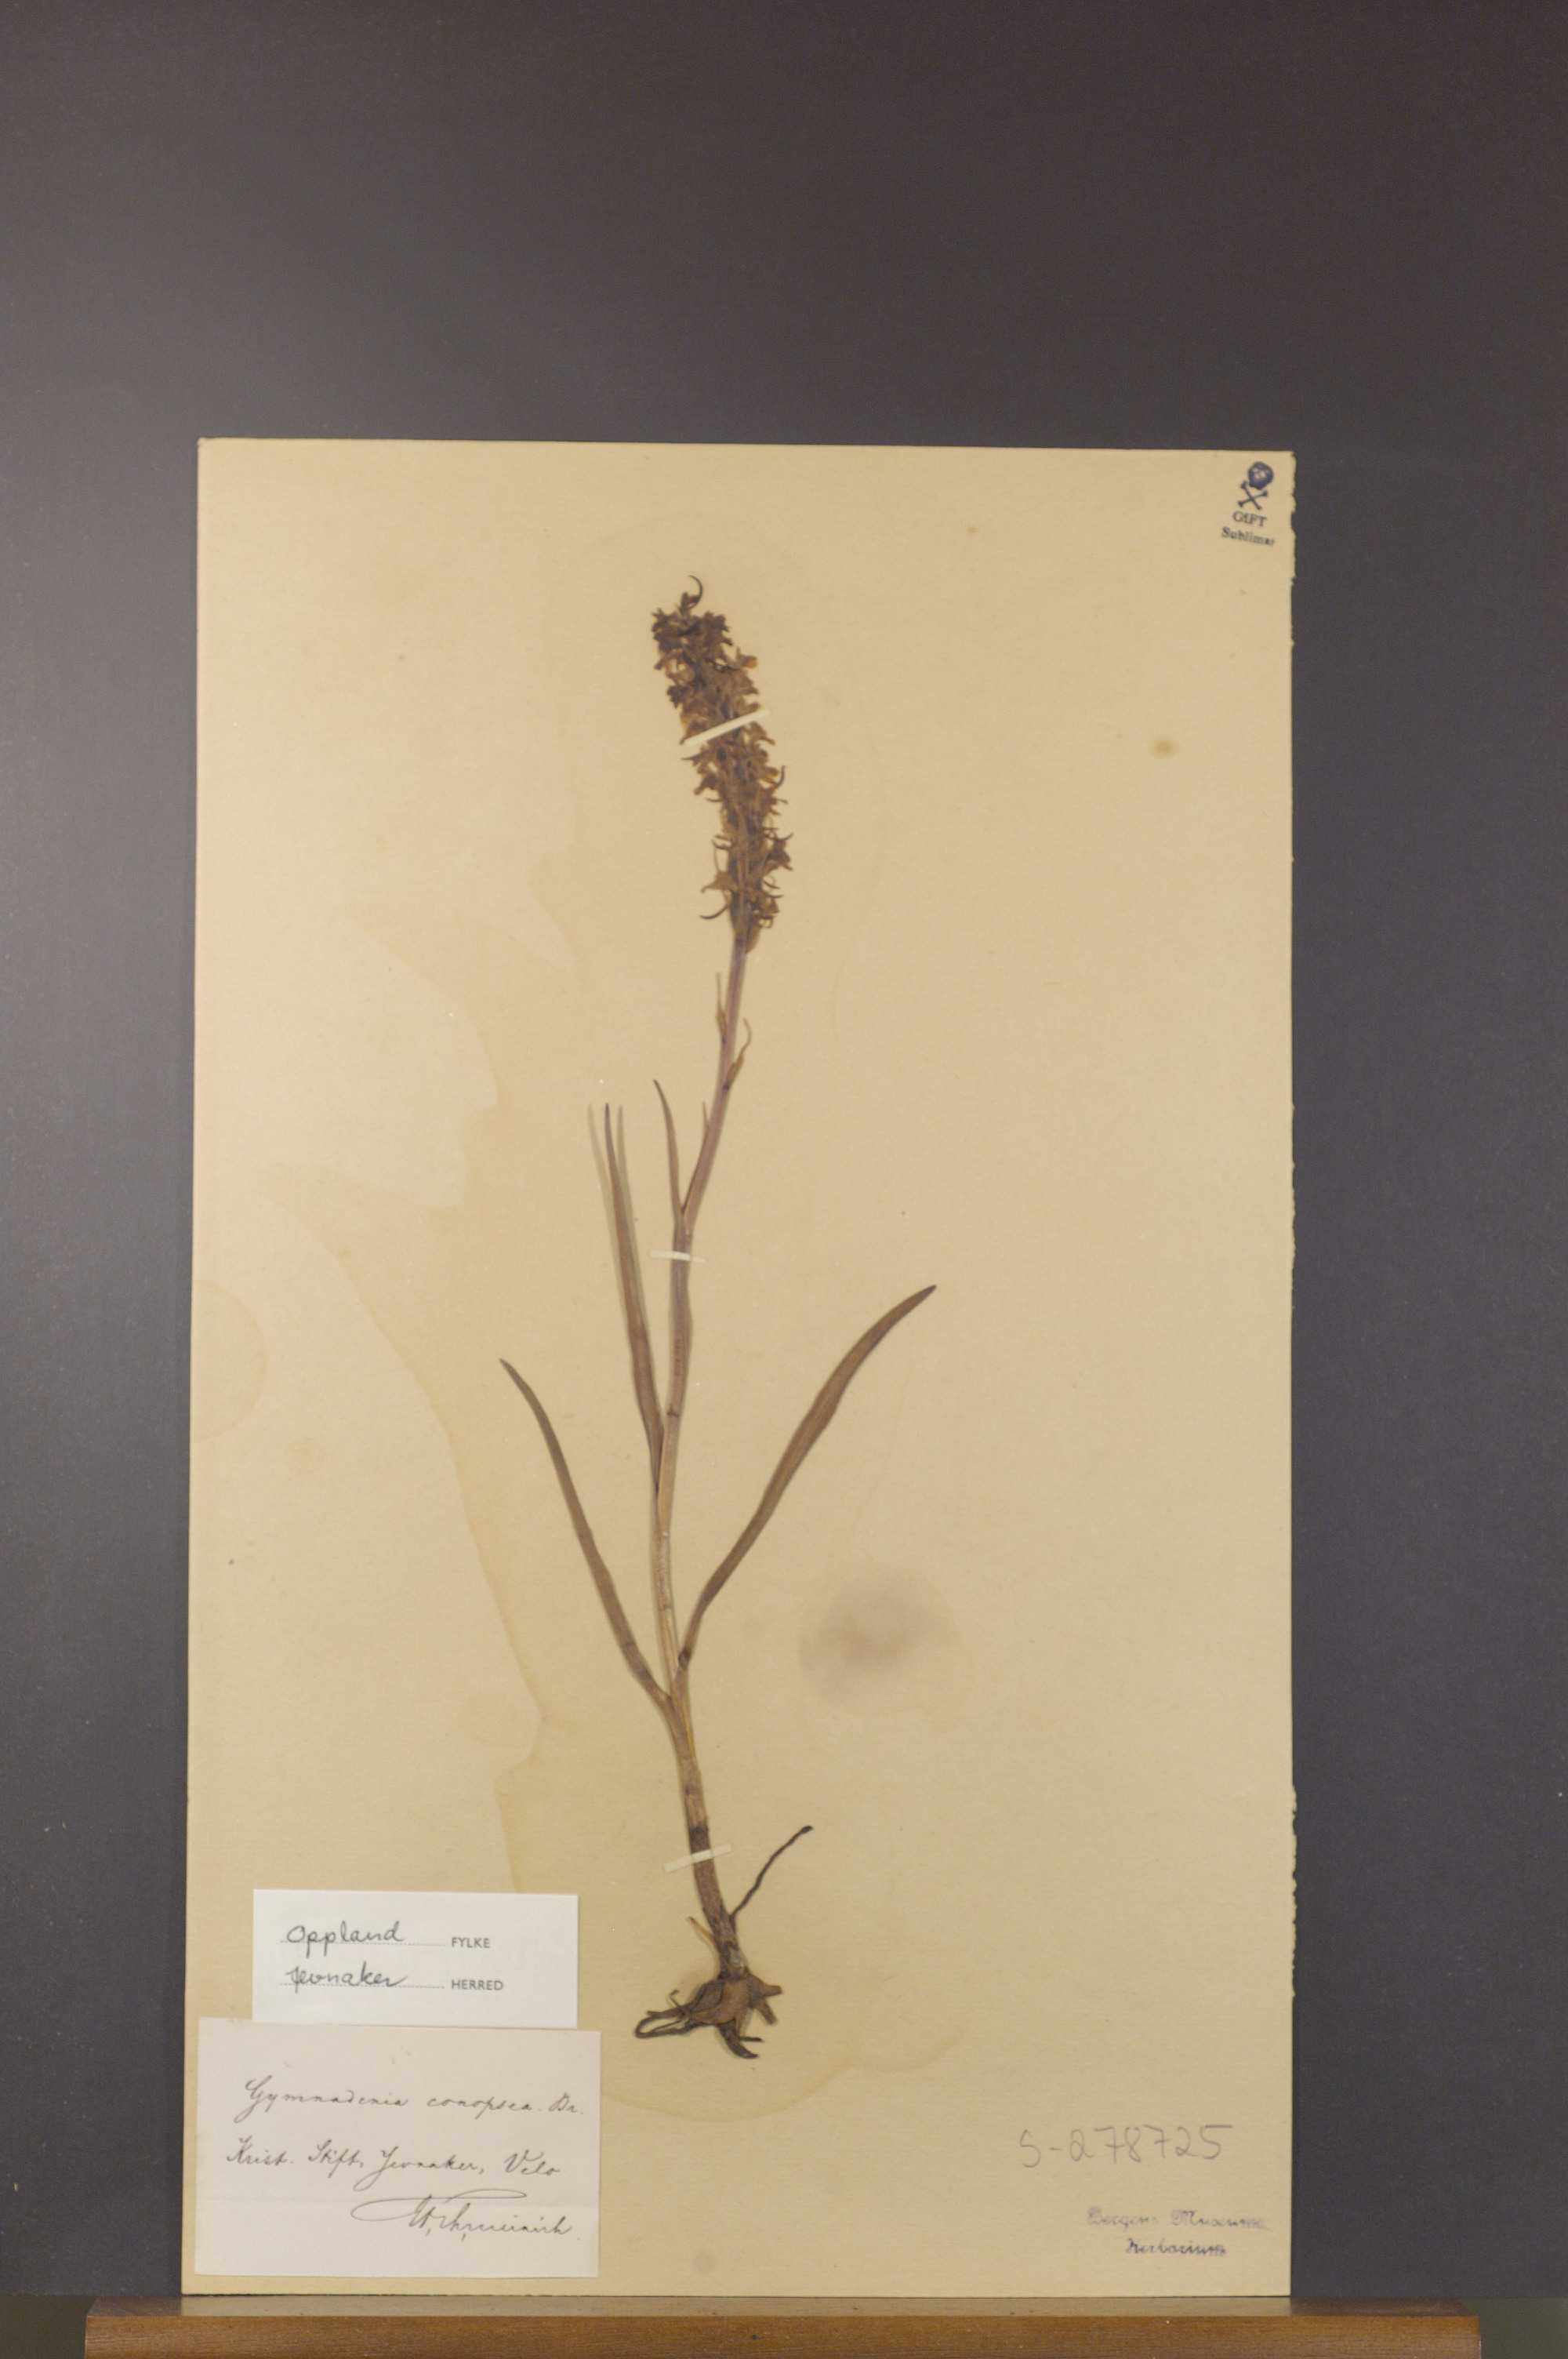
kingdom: Plantae
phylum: Tracheophyta
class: Liliopsida
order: Asparagales
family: Orchidaceae
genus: Gymnadenia
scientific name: Gymnadenia conopsea
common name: Fragrant orchid
